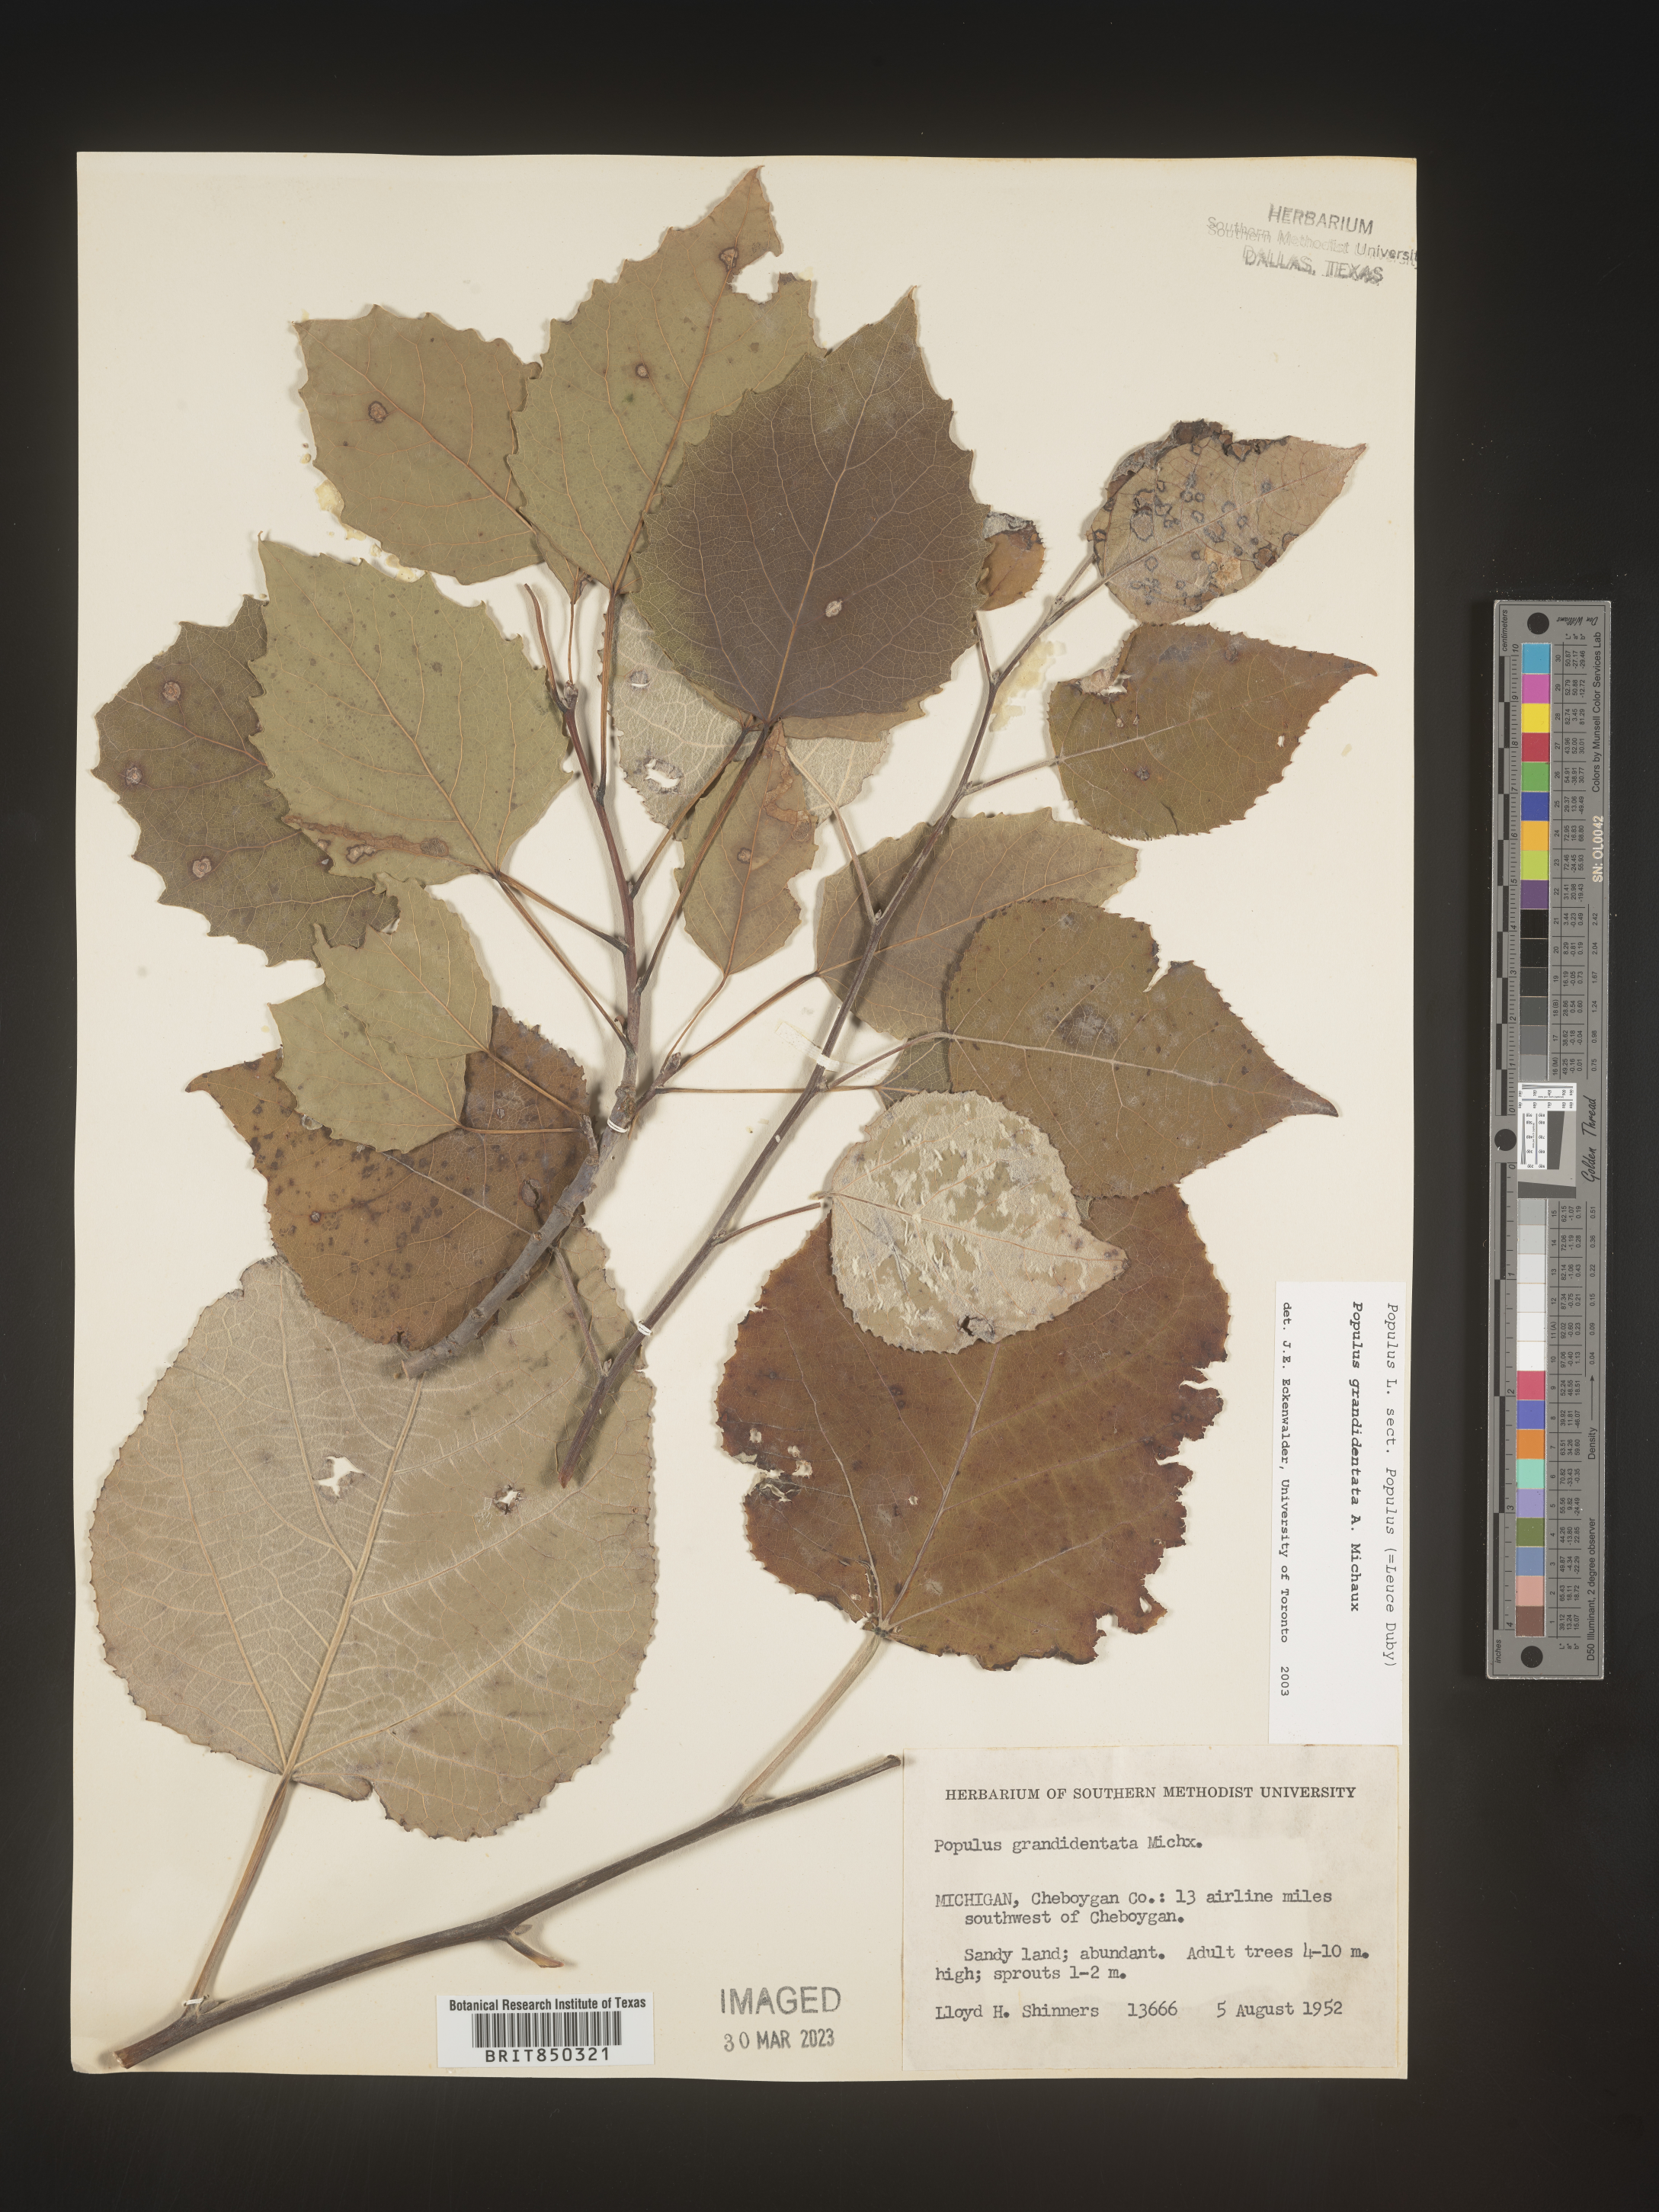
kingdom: Plantae
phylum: Tracheophyta
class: Magnoliopsida
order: Malpighiales
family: Salicaceae
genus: Populus
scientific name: Populus grandidentata
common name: Bigtooth aspen
